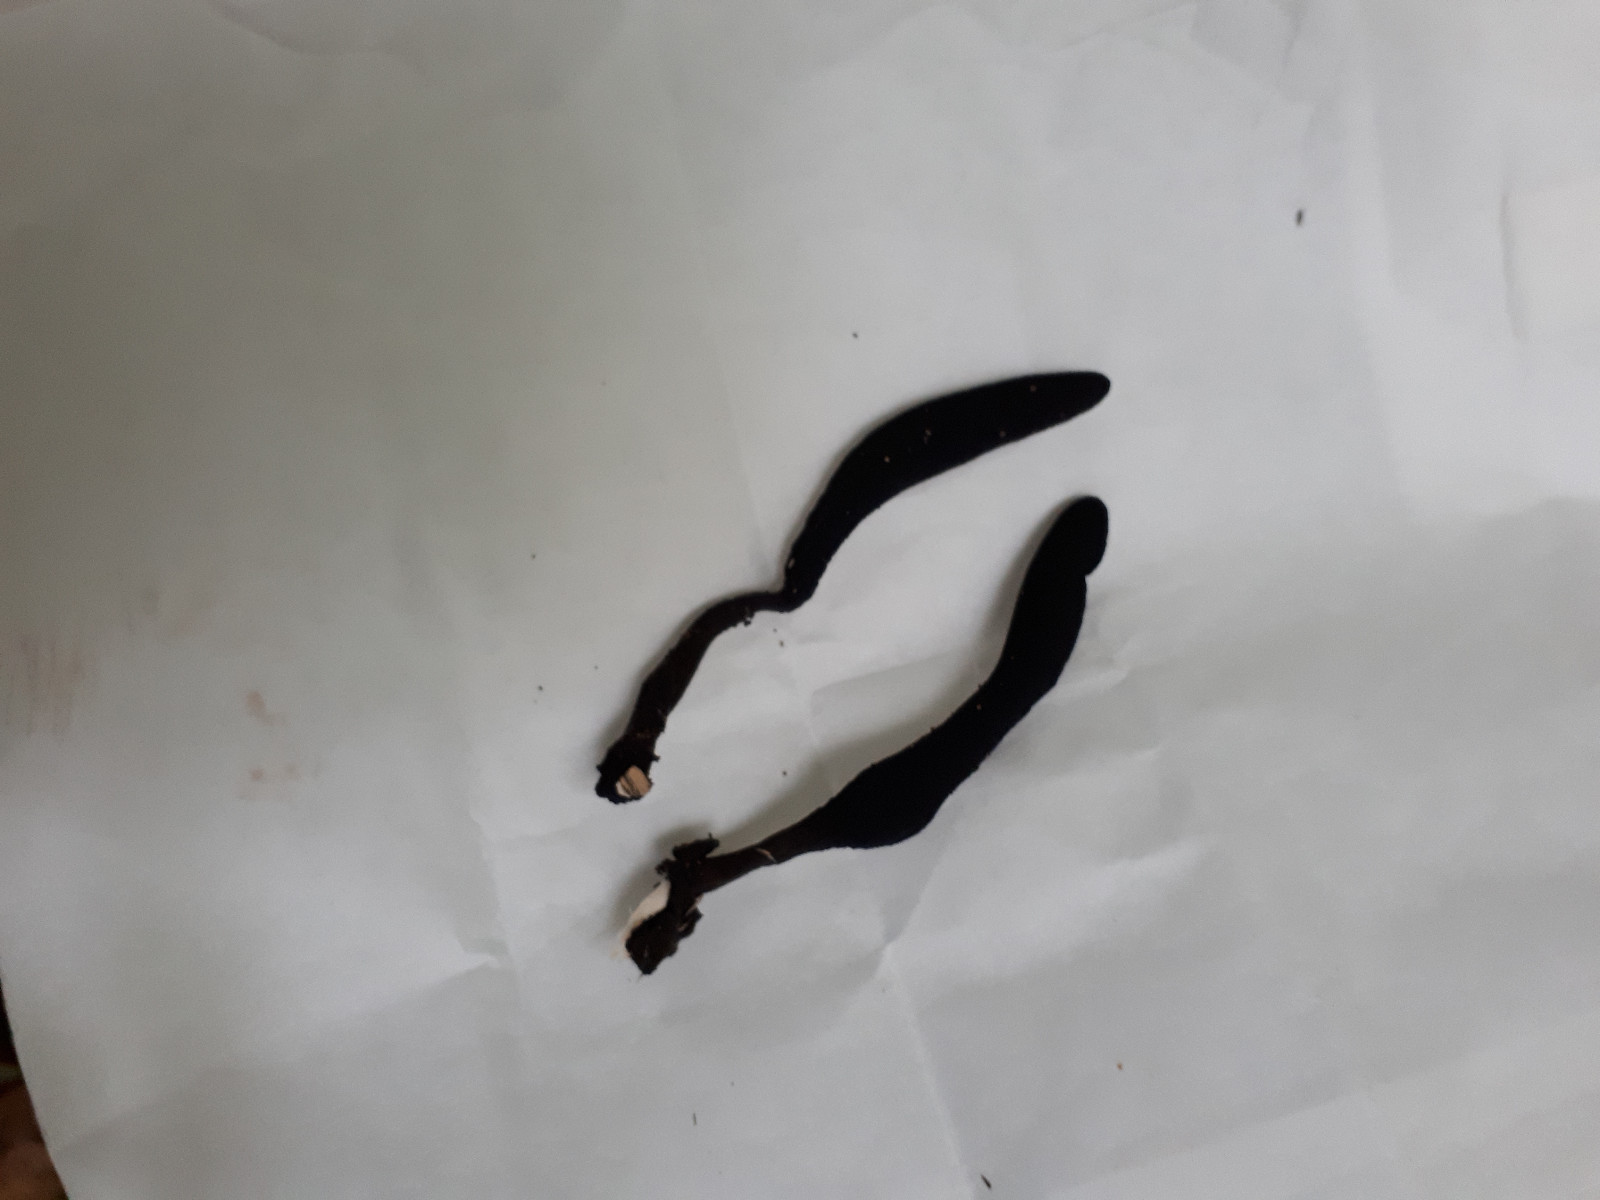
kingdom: Fungi
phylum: Ascomycota
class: Sordariomycetes
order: Xylariales
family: Xylariaceae
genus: Xylaria
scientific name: Xylaria longipes
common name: slank stødsvamp
